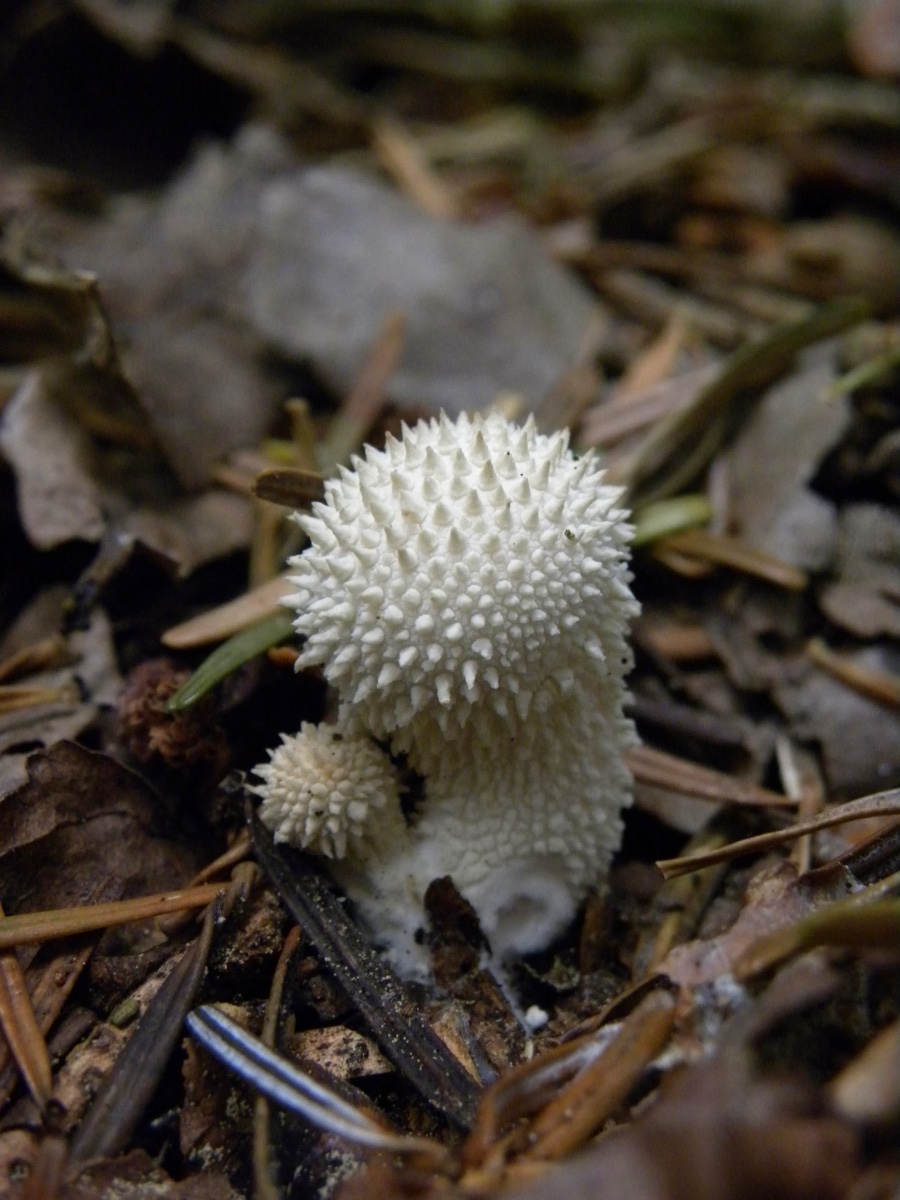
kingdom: Fungi
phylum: Basidiomycota
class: Agaricomycetes
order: Agaricales
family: Lycoperdaceae
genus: Lycoperdon
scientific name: Lycoperdon perlatum
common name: krystal-støvbold
